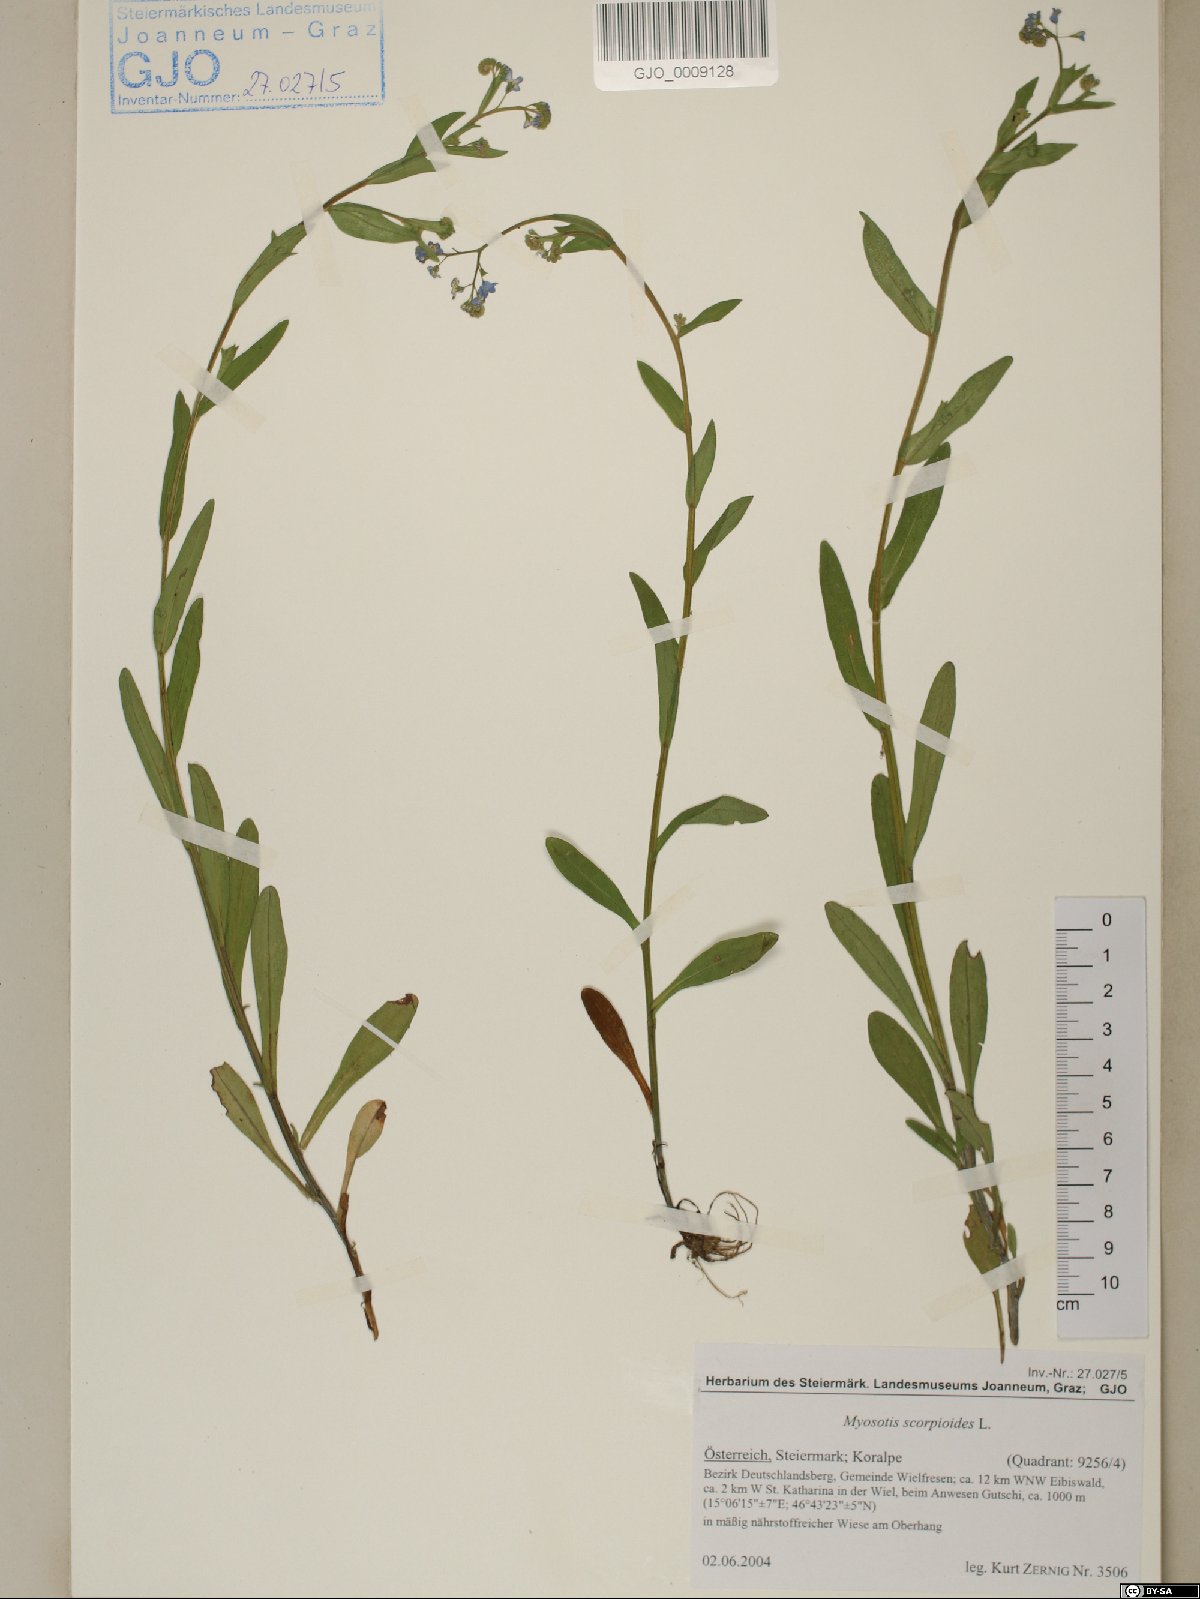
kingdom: Plantae
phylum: Tracheophyta
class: Magnoliopsida
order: Boraginales
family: Boraginaceae
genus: Myosotis
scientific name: Myosotis scorpioides
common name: Water forget-me-not
